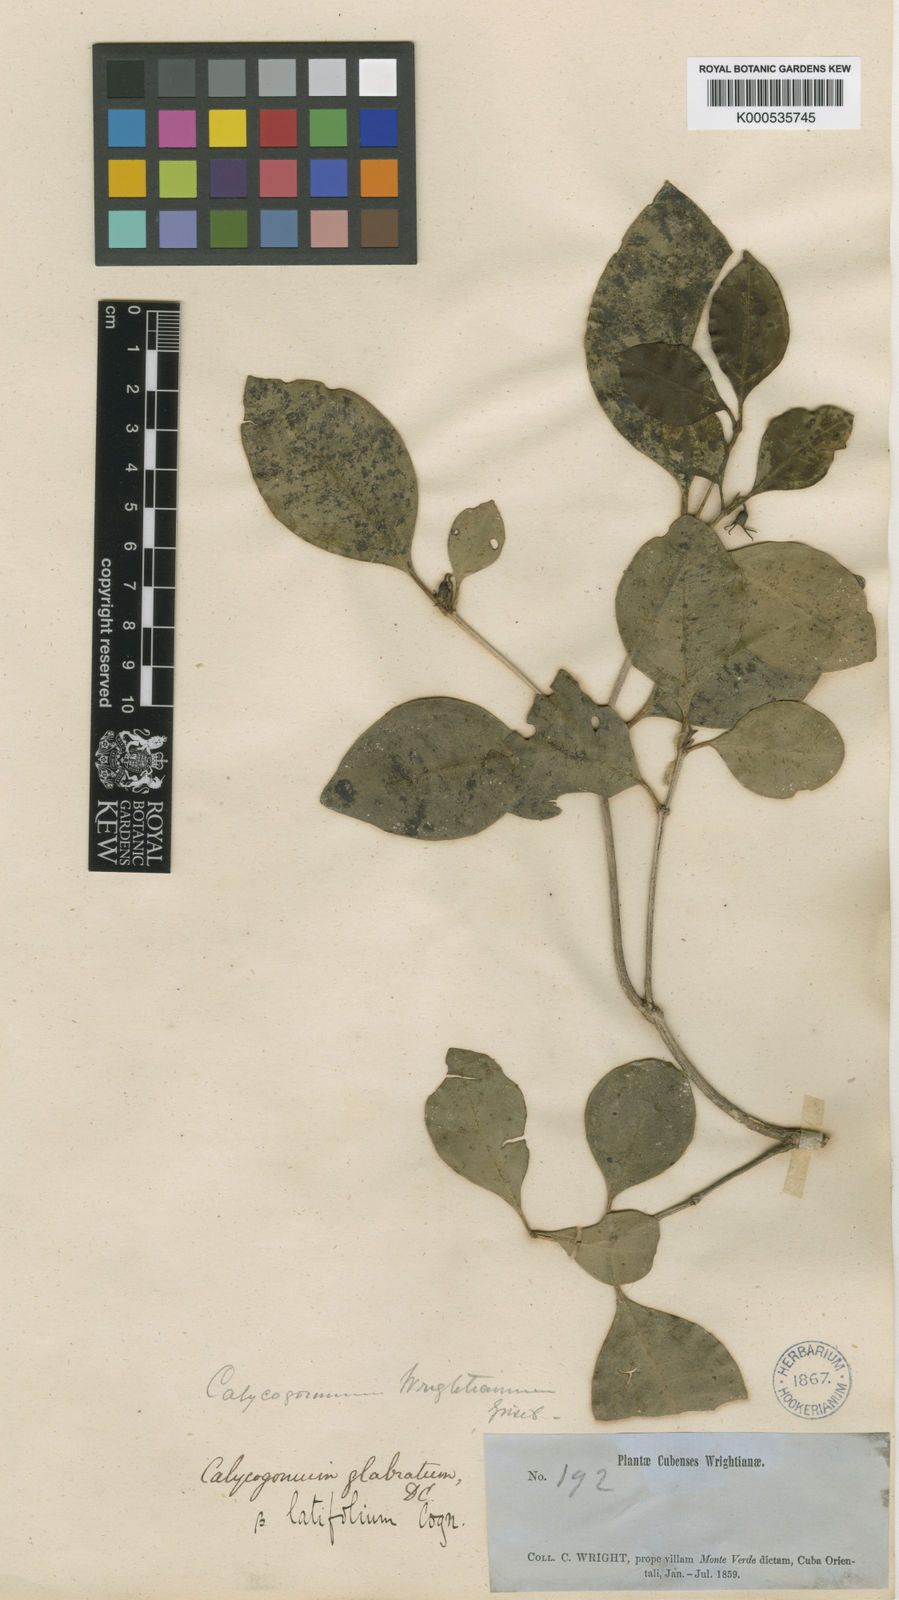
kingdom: Plantae
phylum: Tracheophyta
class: Magnoliopsida
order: Myrtales
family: Melastomataceae
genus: Miconia
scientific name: Miconia glabrifolia
